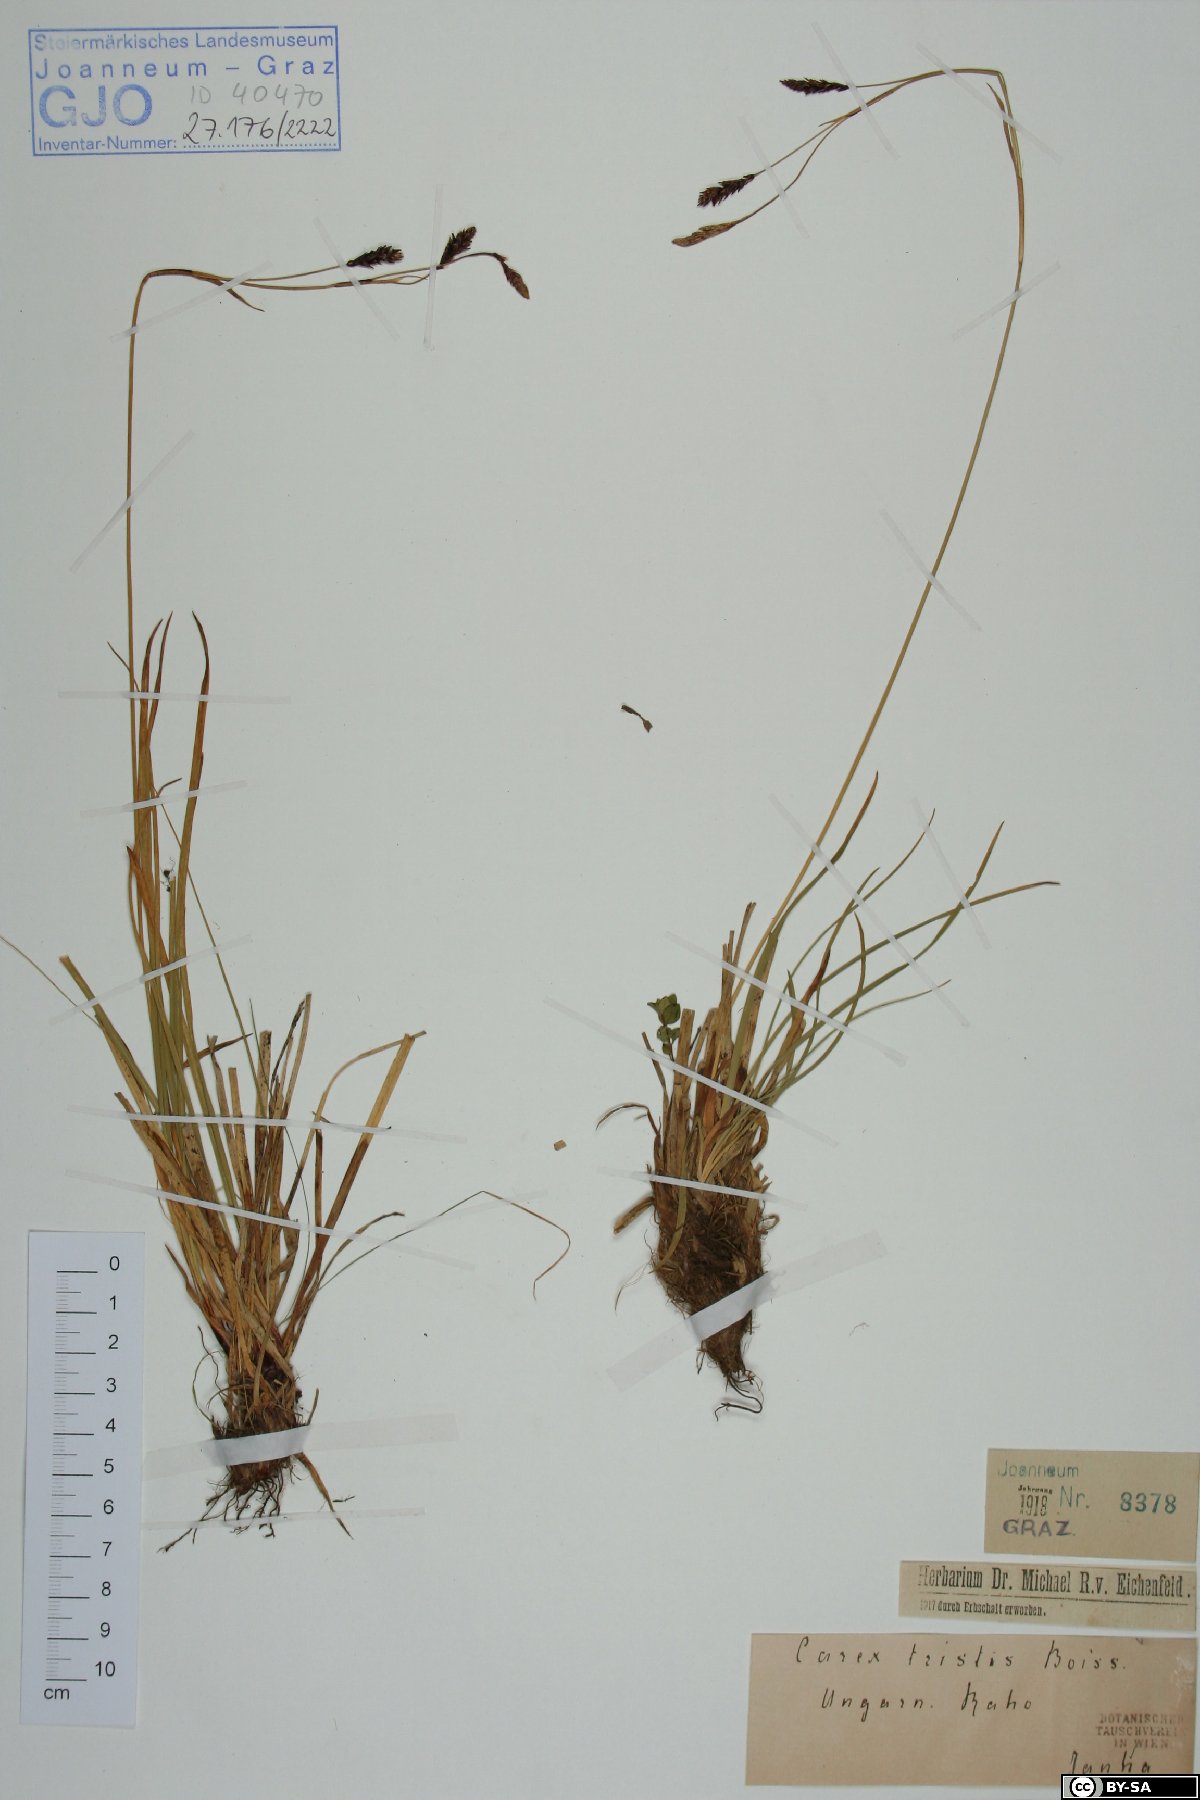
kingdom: Plantae
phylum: Tracheophyta
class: Liliopsida
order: Poales
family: Cyperaceae
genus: Carex
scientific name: Carex tristis
